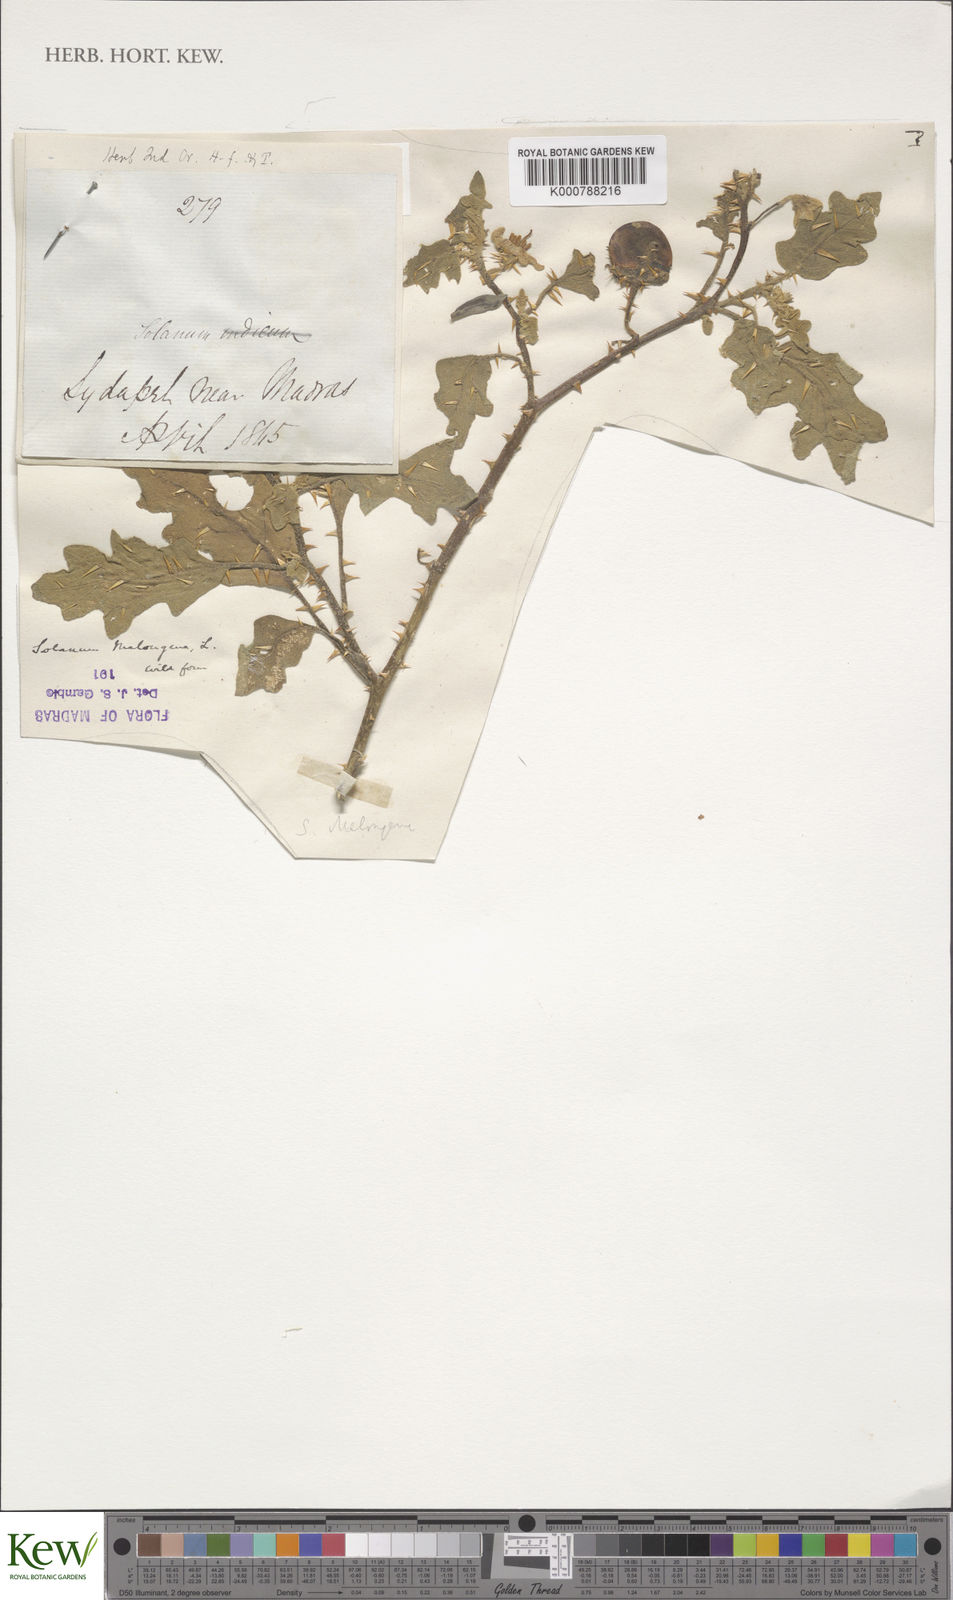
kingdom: Plantae
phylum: Tracheophyta
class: Magnoliopsida
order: Solanales
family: Solanaceae
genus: Solanum
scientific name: Solanum insanum
